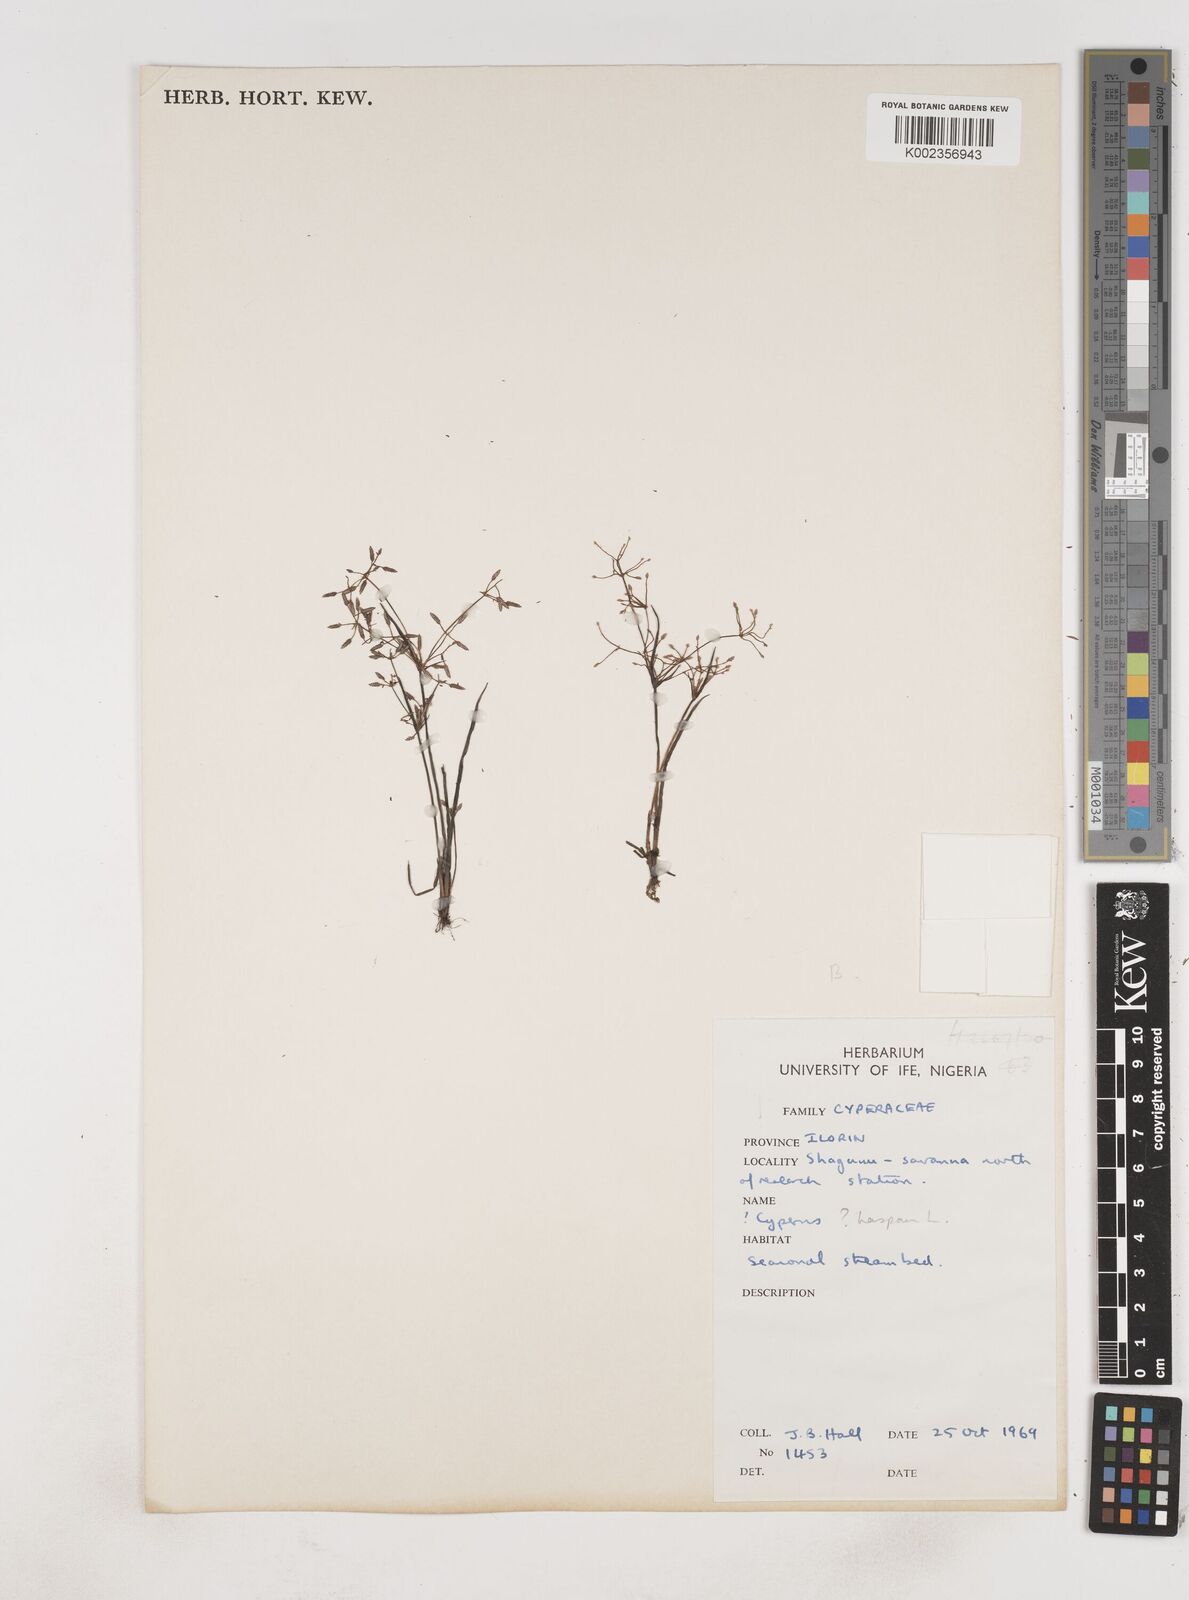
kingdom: Plantae
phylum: Tracheophyta
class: Liliopsida
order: Poales
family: Cyperaceae
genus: Cyperus
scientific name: Cyperus haspan
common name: Haspan flatsedge
